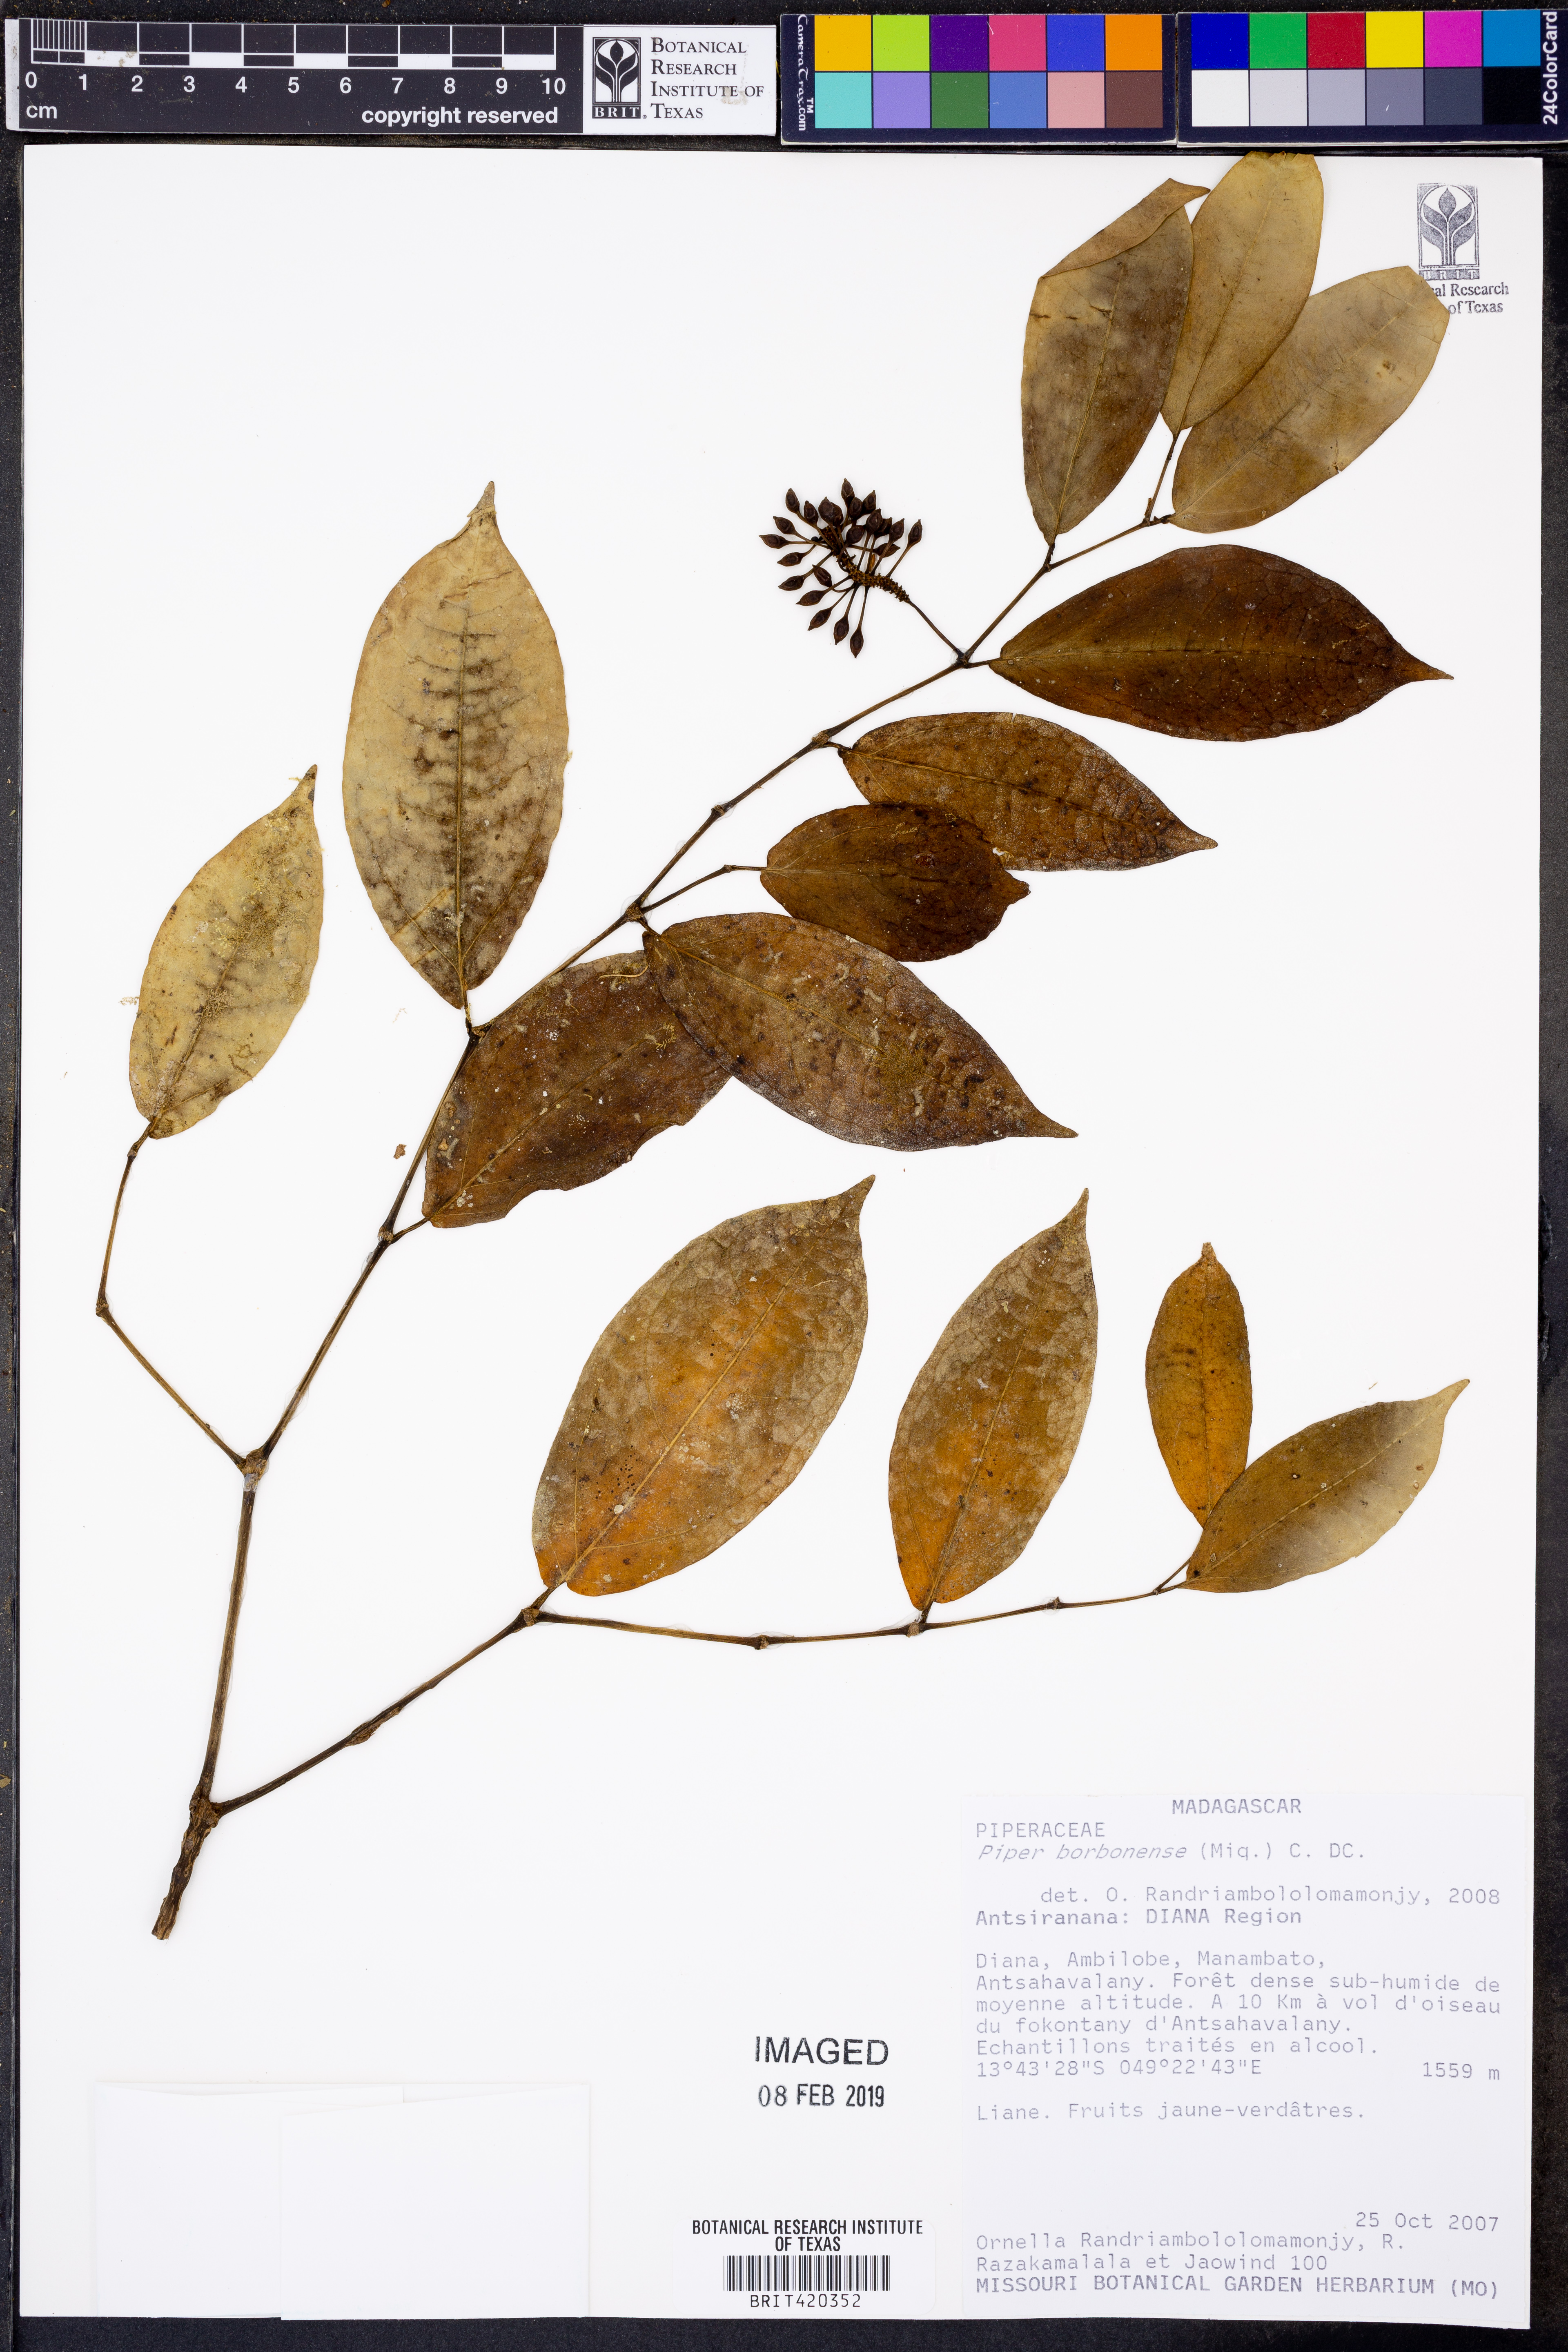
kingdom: Plantae
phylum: Tracheophyta
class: Magnoliopsida
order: Piperales
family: Piperaceae
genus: Piper
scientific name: Piper borbonense
